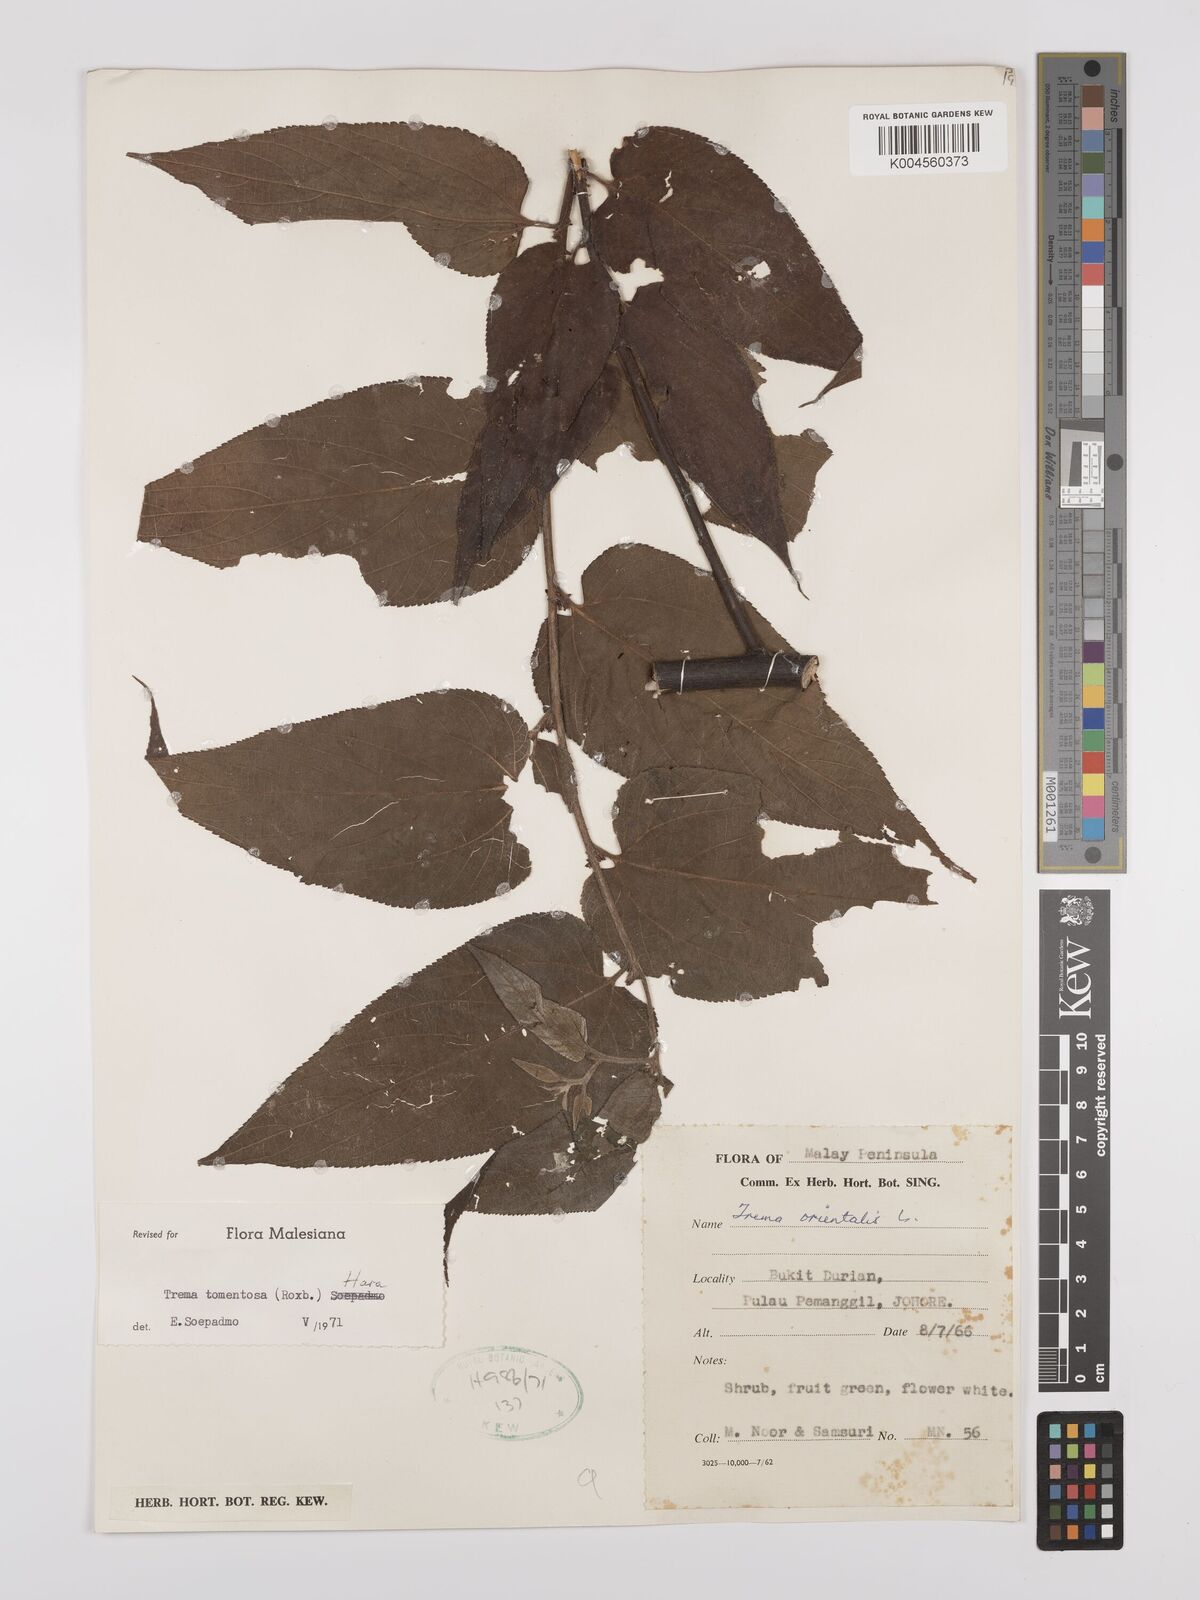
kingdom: Plantae
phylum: Tracheophyta
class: Magnoliopsida
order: Rosales
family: Cannabaceae
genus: Trema
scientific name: Trema tomentosum
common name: Peach-leaf-poisonbush
